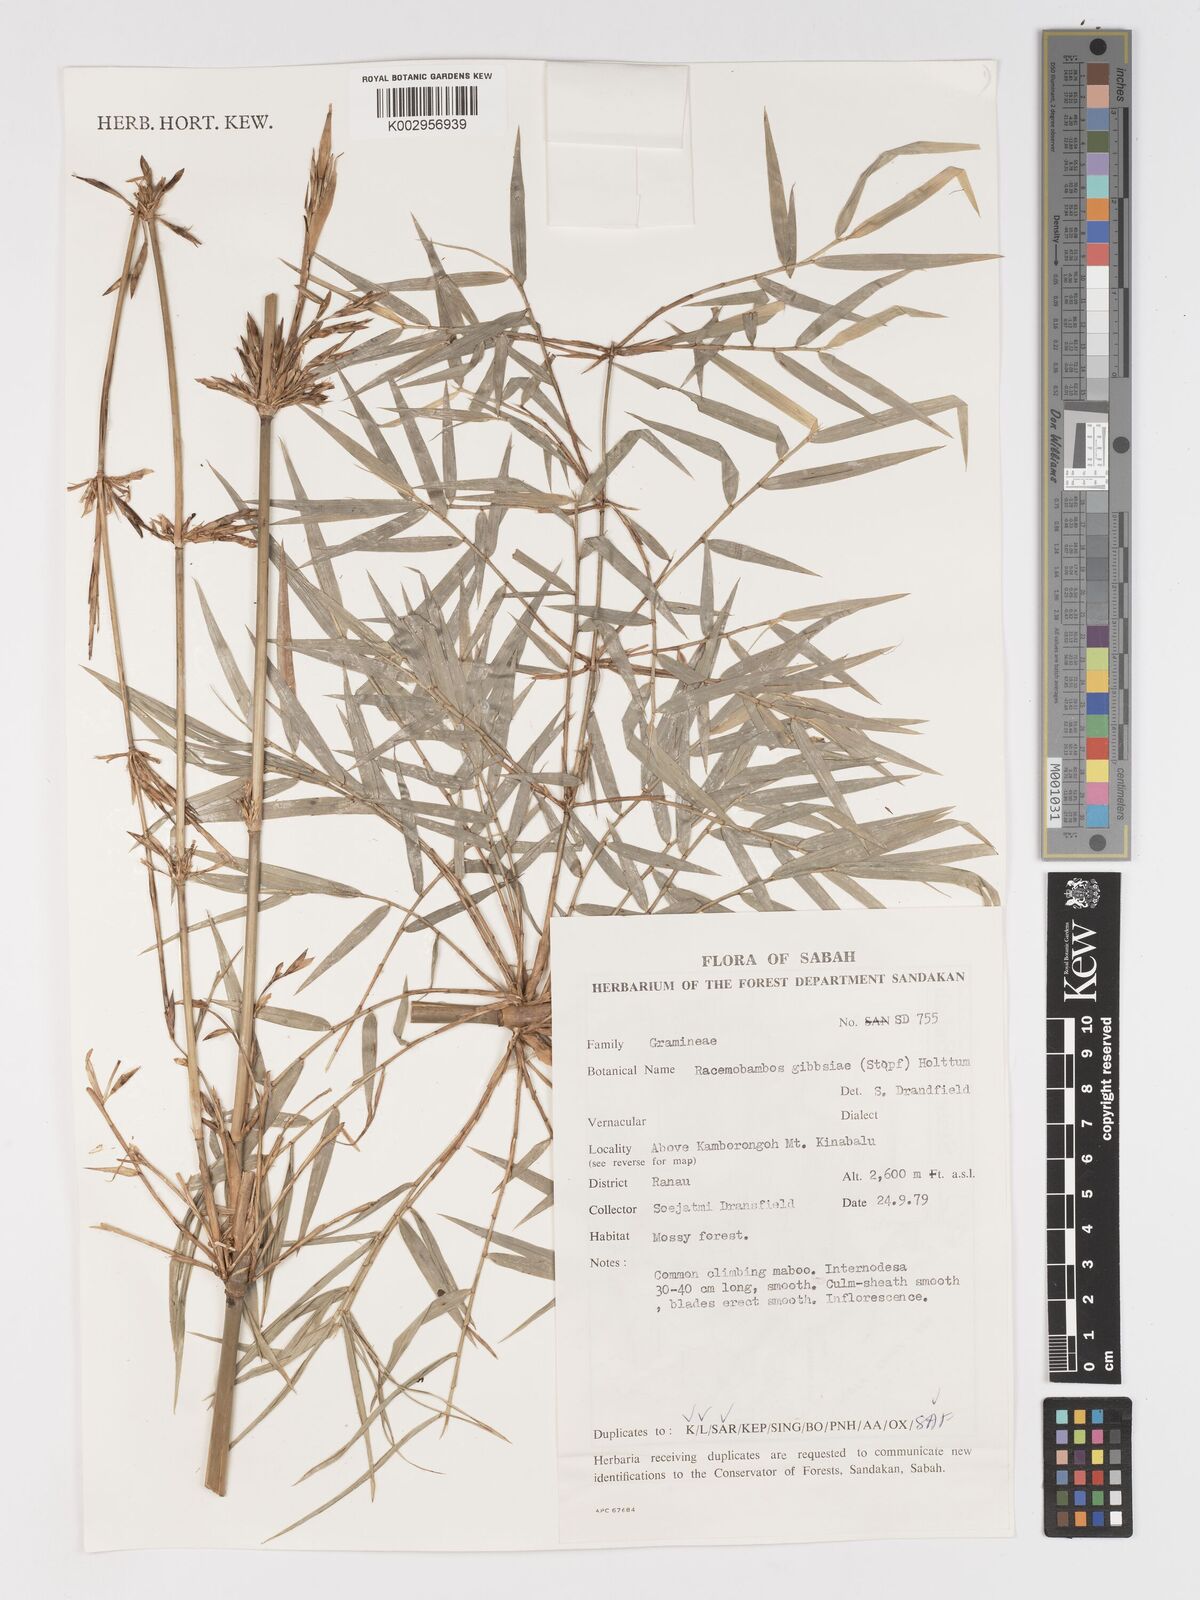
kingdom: Plantae
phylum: Tracheophyta
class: Liliopsida
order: Poales
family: Poaceae
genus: Racemobambos
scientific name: Racemobambos gibbsiae
